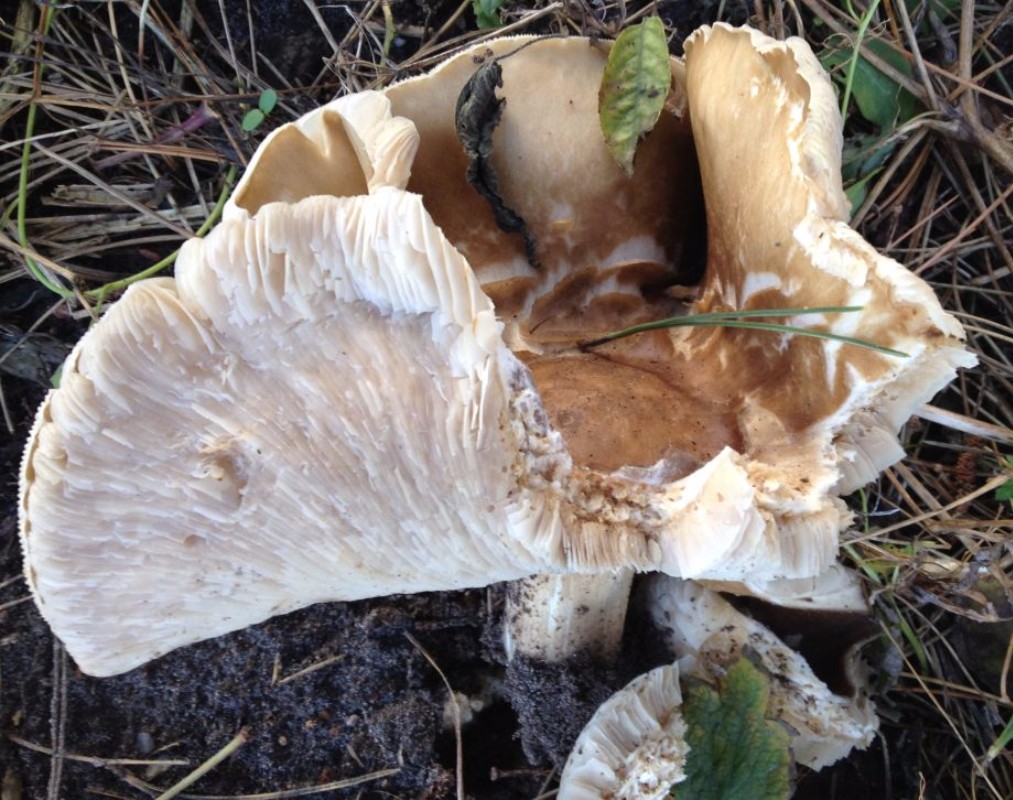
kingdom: Fungi
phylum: Basidiomycota
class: Agaricomycetes
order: Agaricales
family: Tricholomataceae
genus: Melanoleuca
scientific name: Melanoleuca
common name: munkehat
